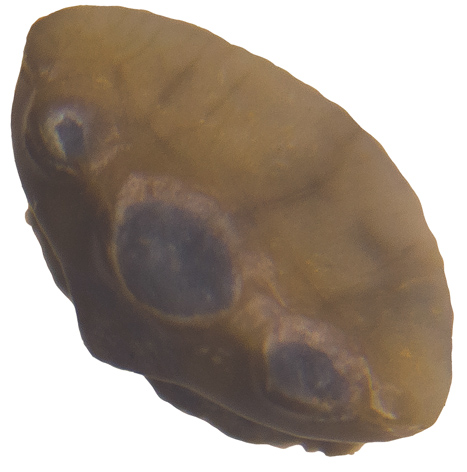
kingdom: Animalia
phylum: Chordata
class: Elasmobranchii
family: Protospinacidae
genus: Protospinax
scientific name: Protospinax bilobatus
